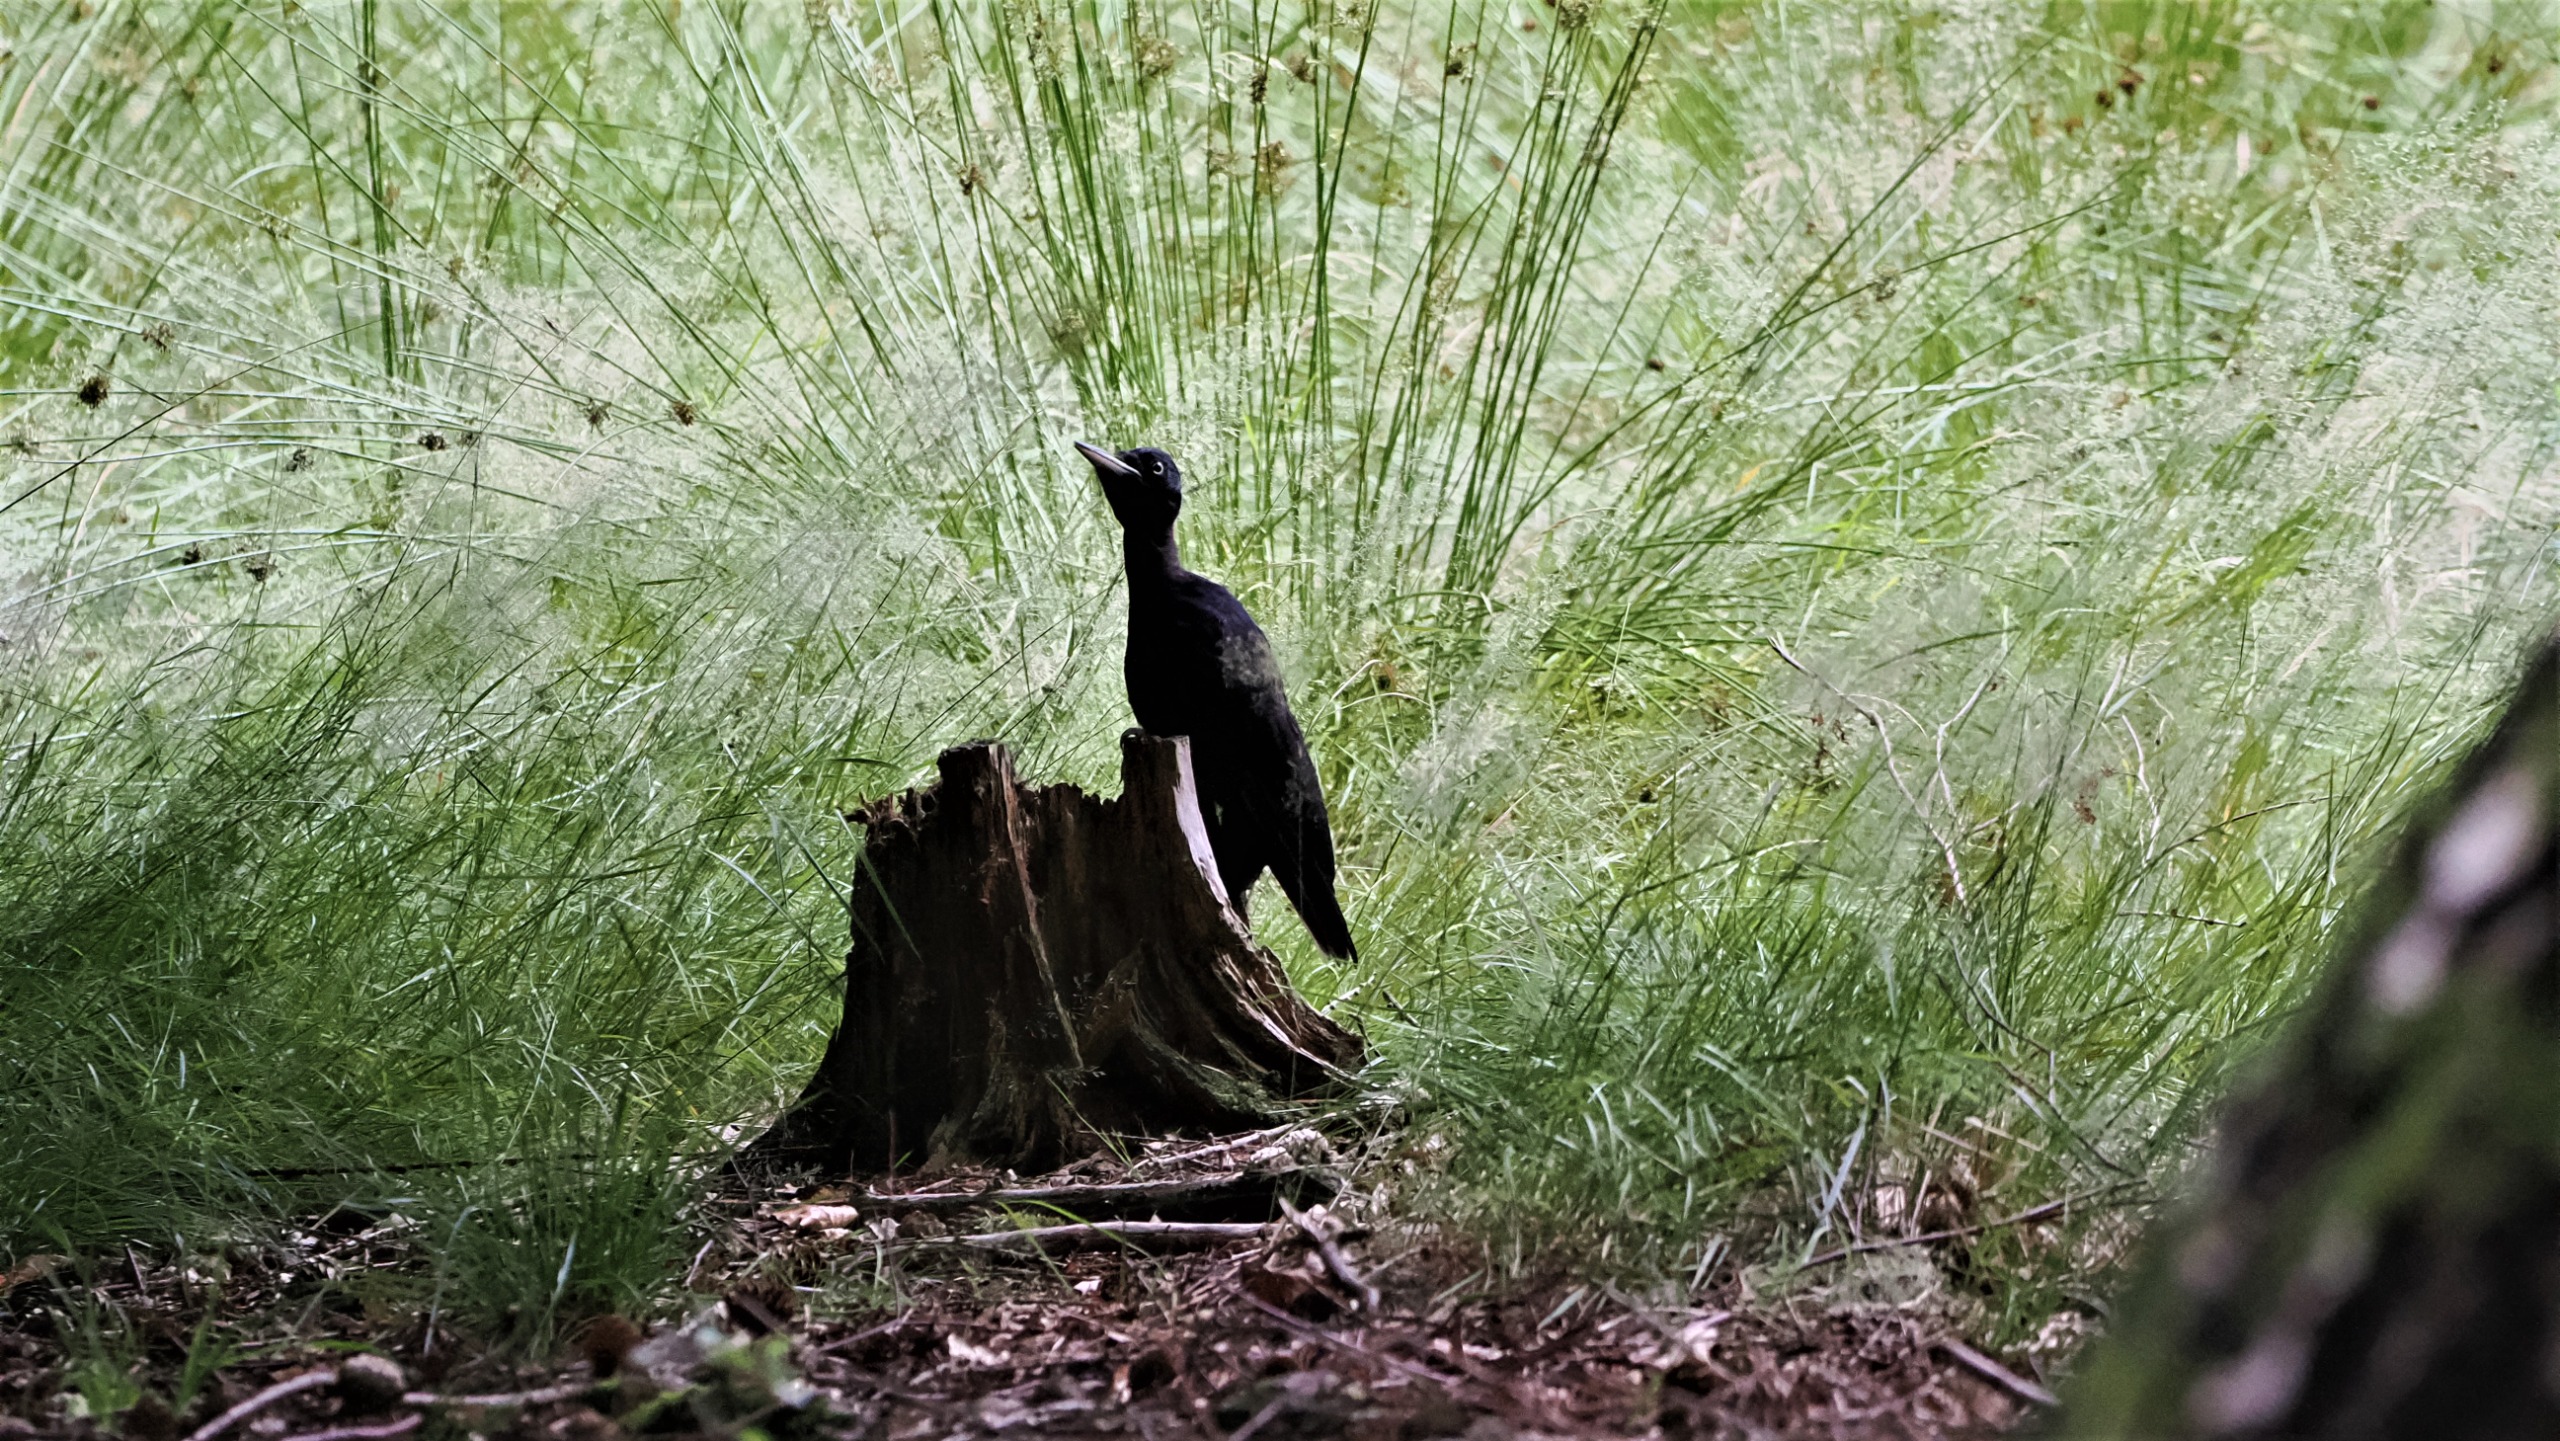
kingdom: Animalia
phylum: Chordata
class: Aves
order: Piciformes
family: Picidae
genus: Dryocopus
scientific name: Dryocopus martius
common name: Sortspætte
